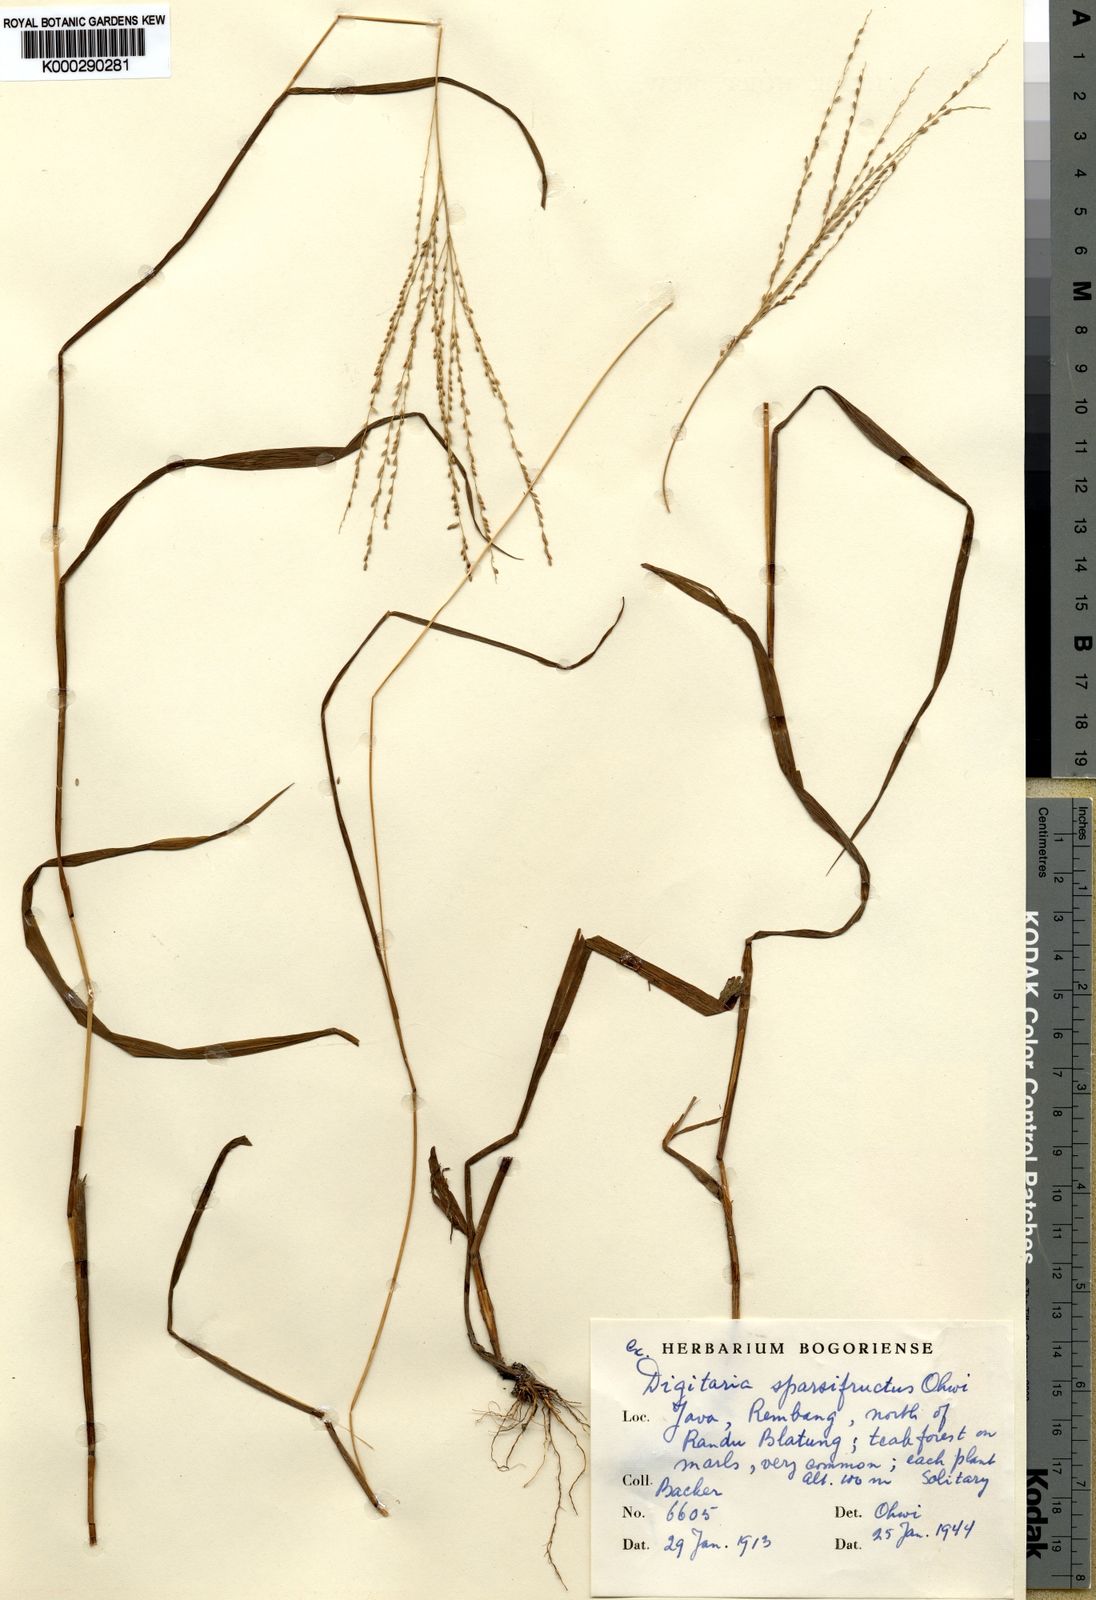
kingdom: Plantae
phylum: Tracheophyta
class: Liliopsida
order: Poales
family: Poaceae
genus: Digitaria
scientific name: Digitaria sparsifructus
